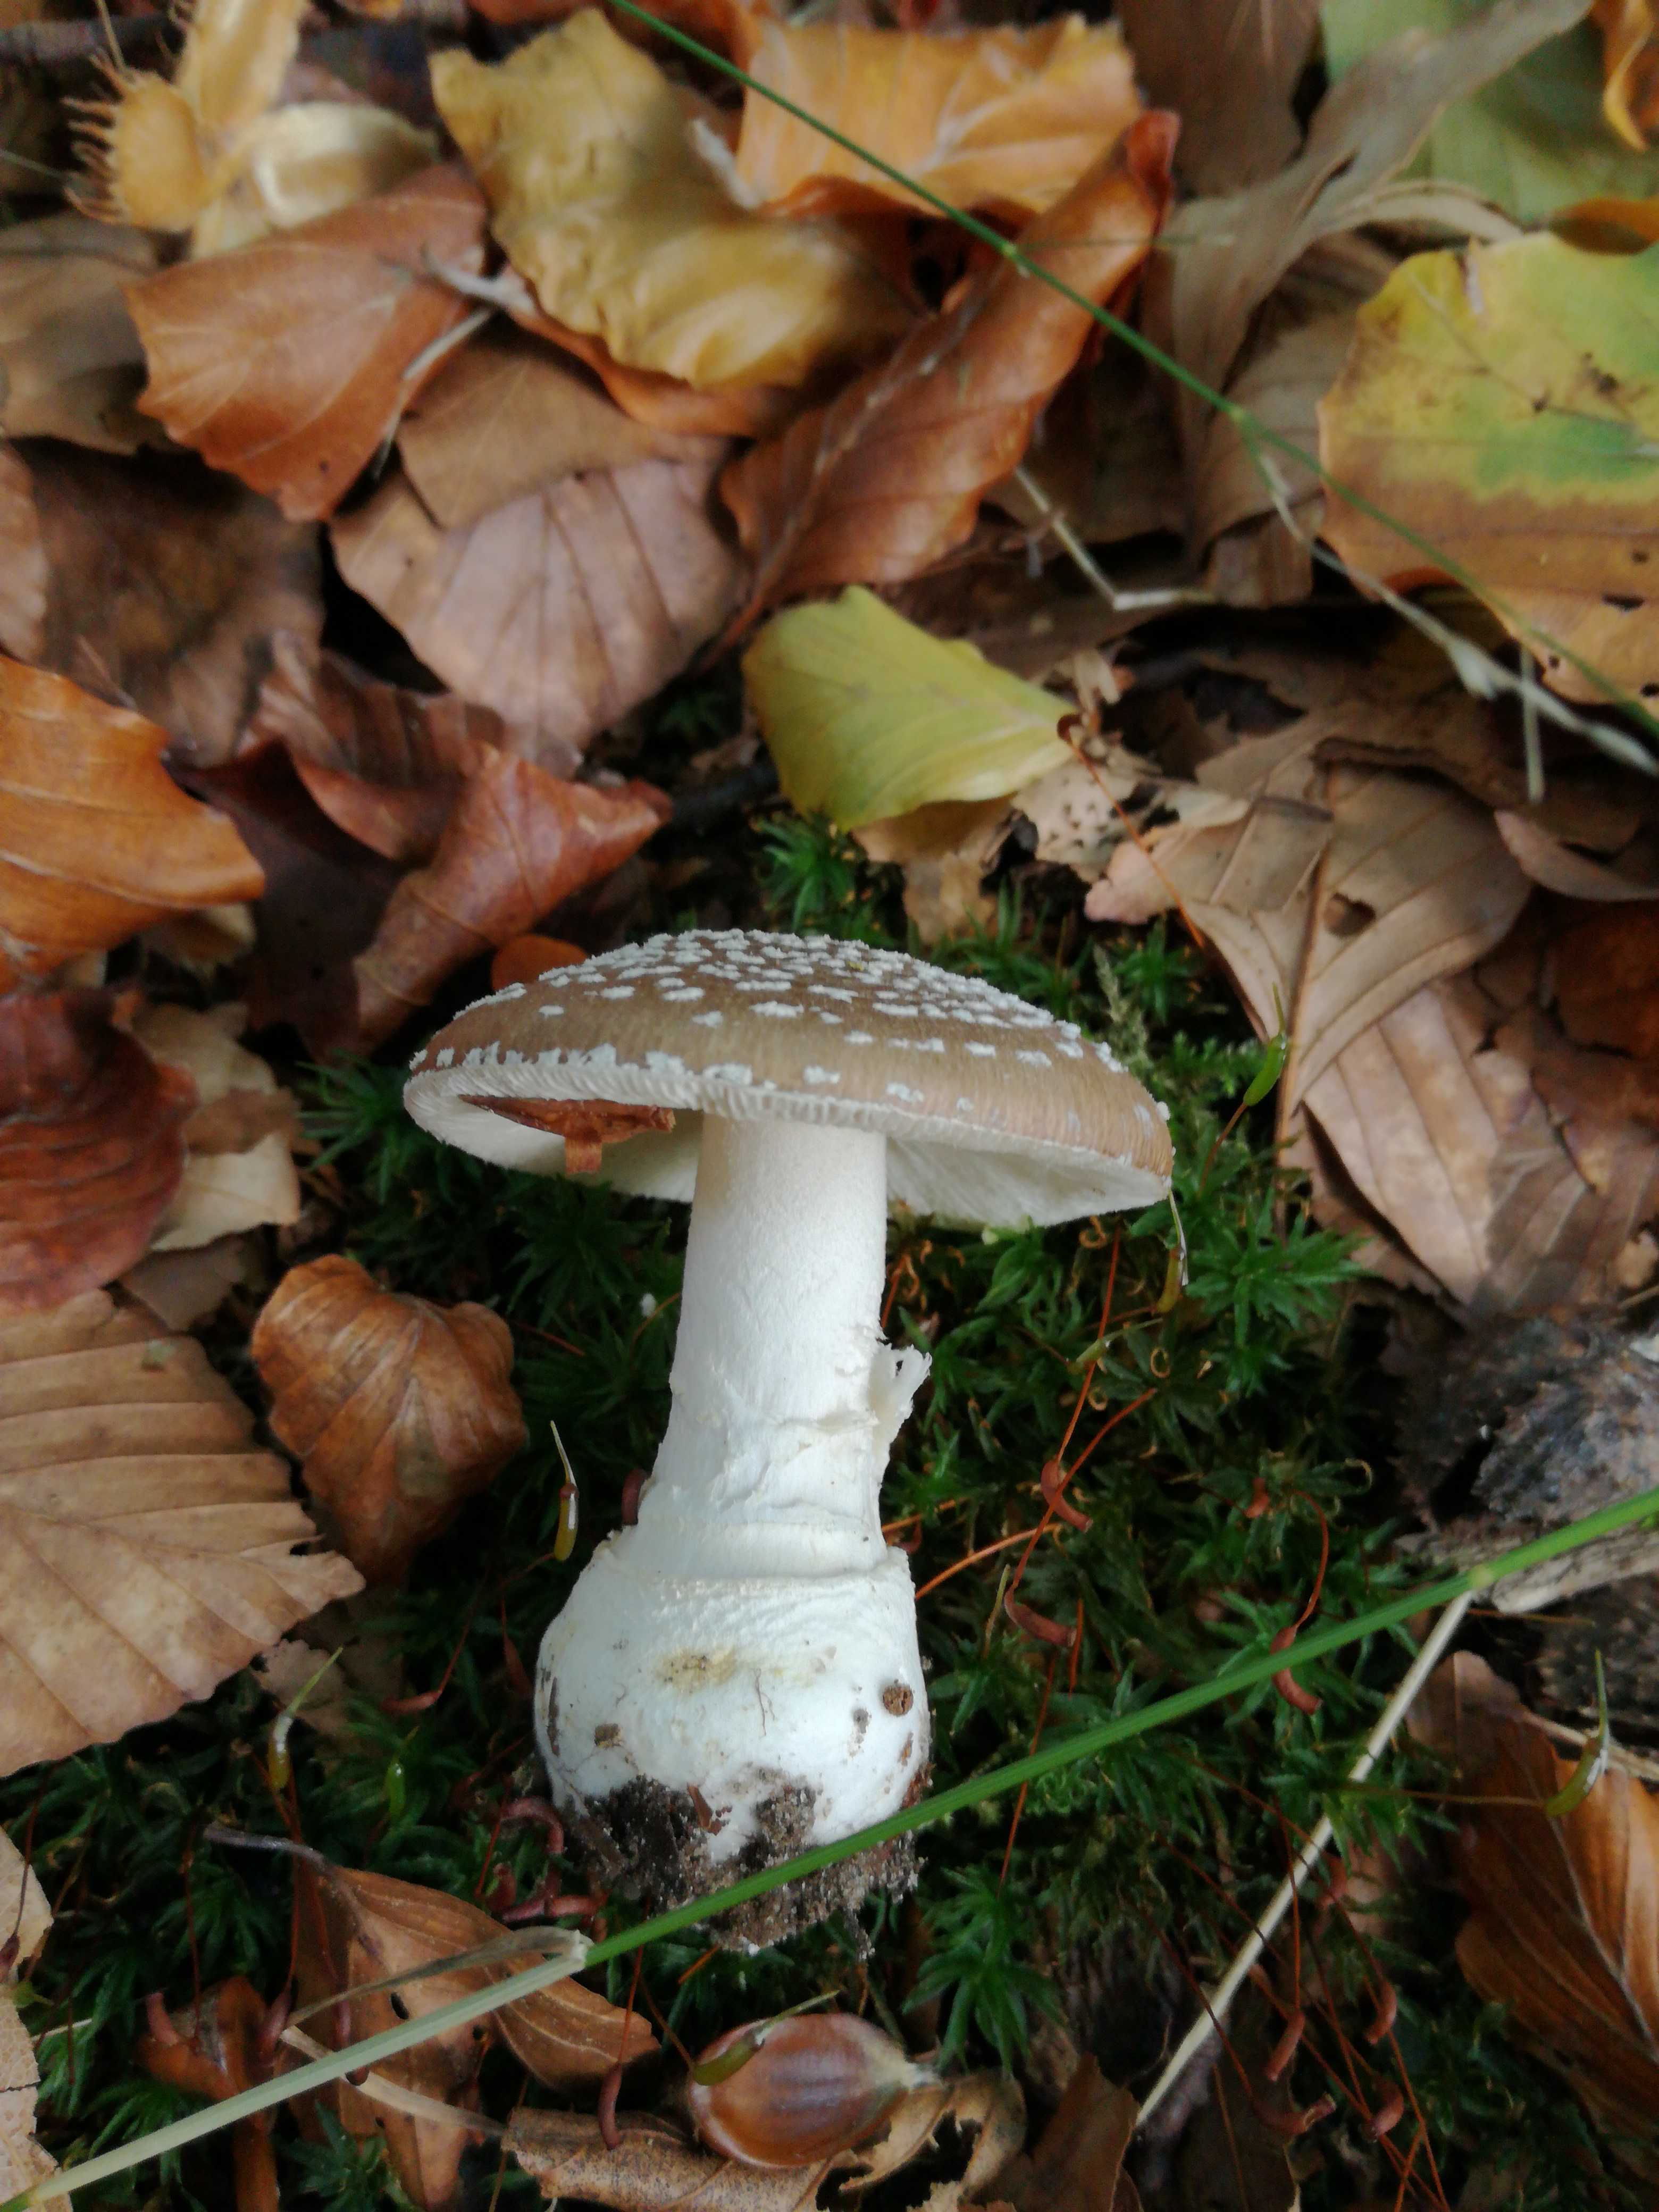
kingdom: Fungi
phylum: Basidiomycota
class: Agaricomycetes
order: Agaricales
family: Amanitaceae
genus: Amanita
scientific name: Amanita pantherina
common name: panter-fluesvamp
